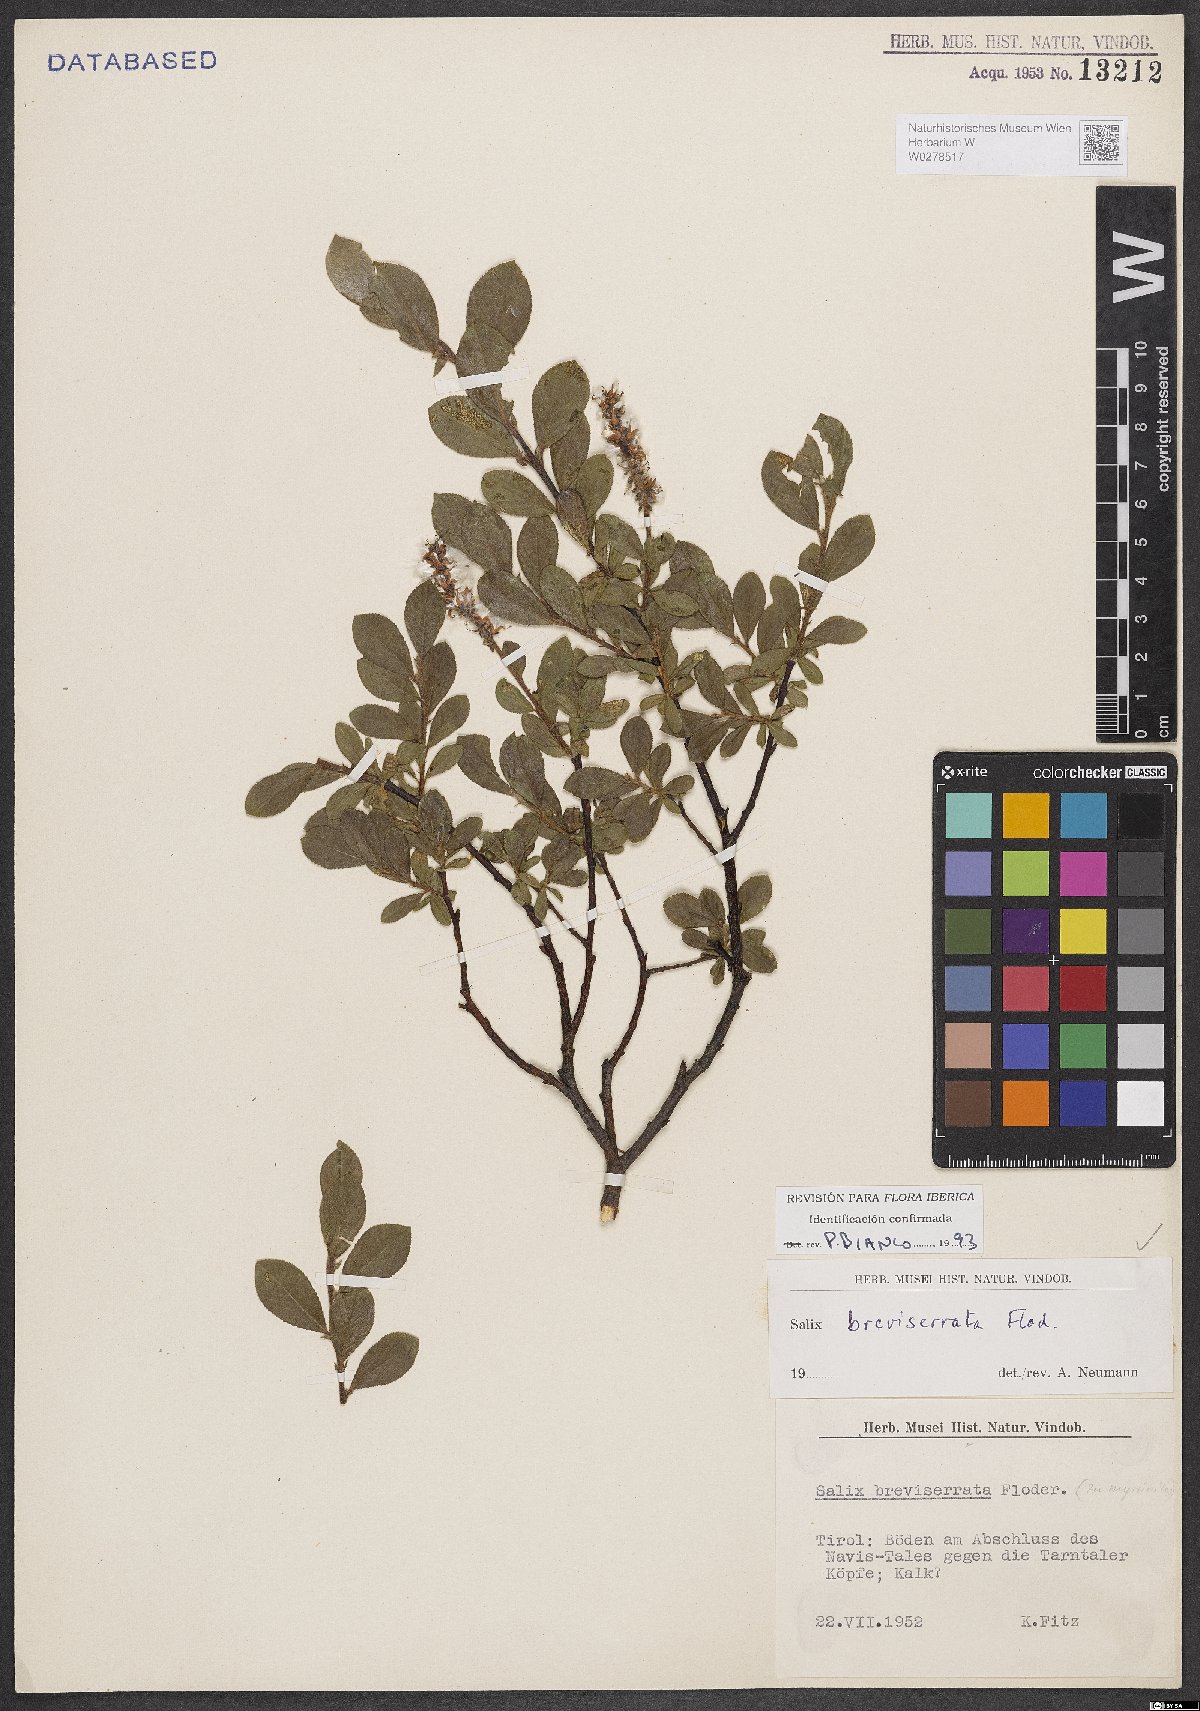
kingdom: Plantae
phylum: Tracheophyta
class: Magnoliopsida
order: Malpighiales
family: Salicaceae
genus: Salix
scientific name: Salix breviserrata
